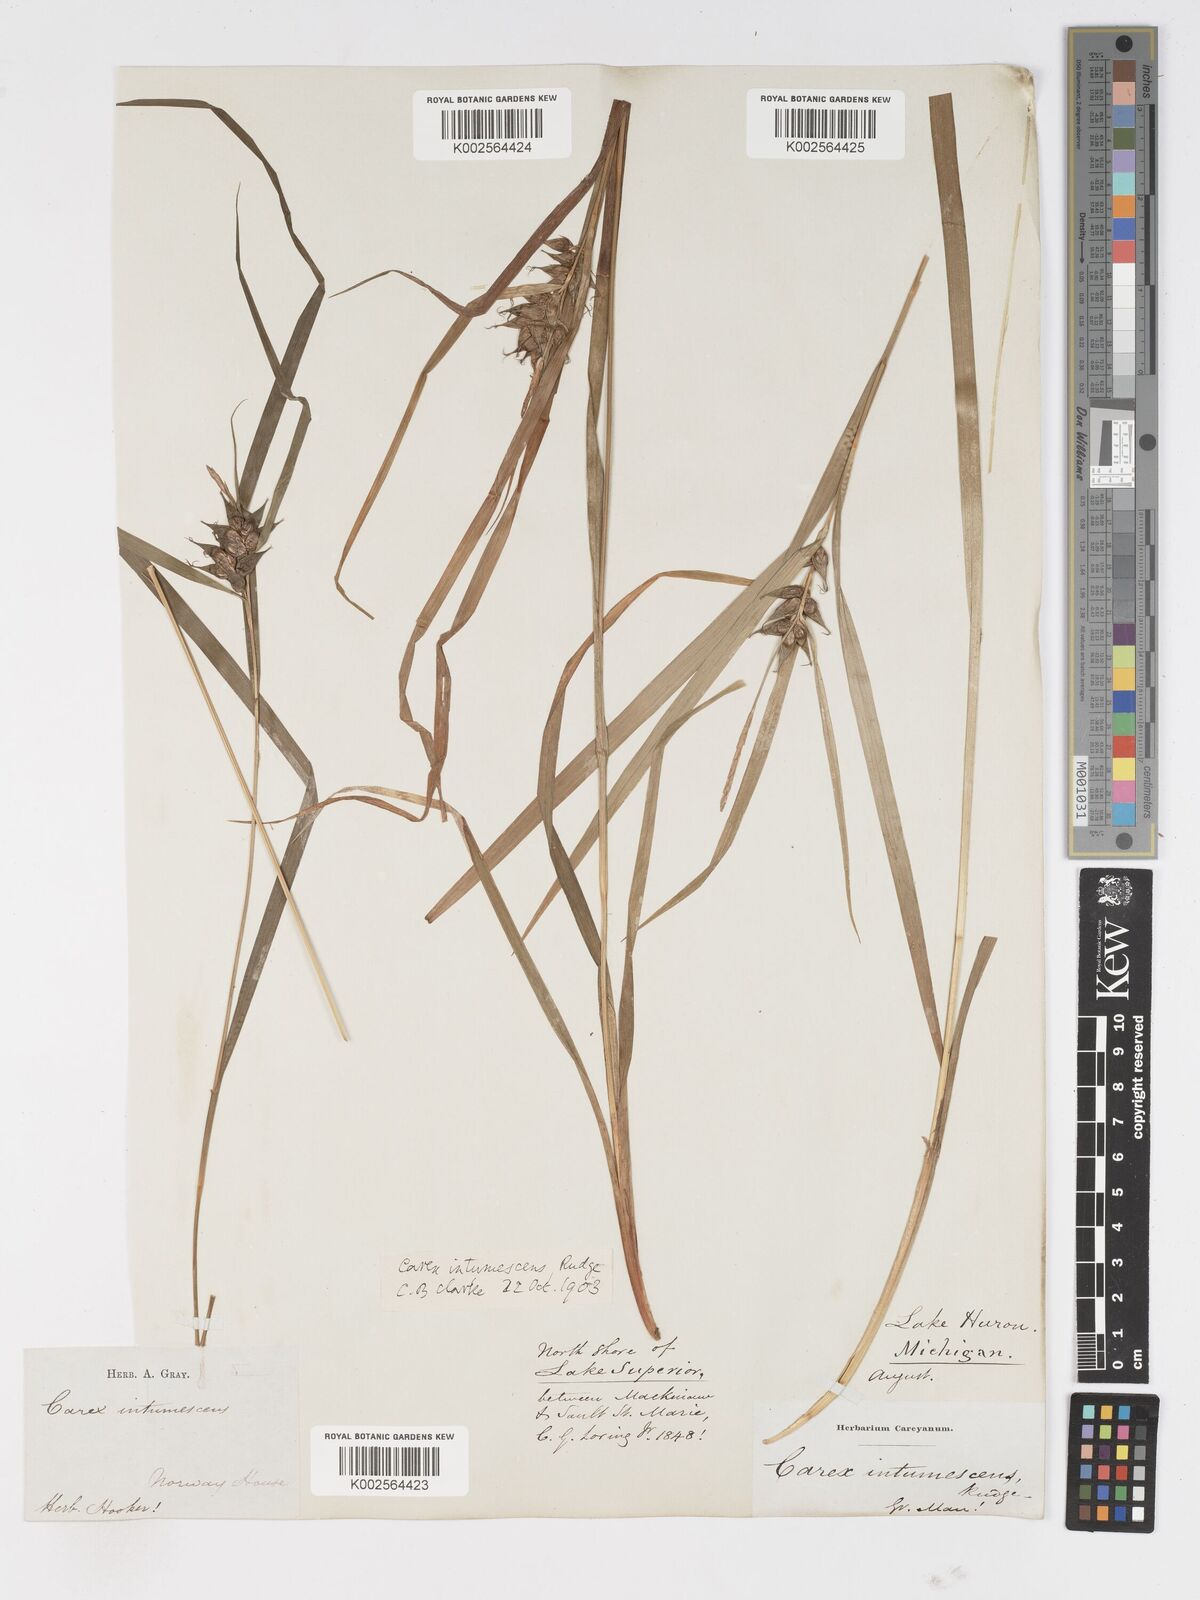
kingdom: Plantae
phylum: Tracheophyta
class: Liliopsida
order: Poales
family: Cyperaceae
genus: Carex
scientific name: Carex intumescens
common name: Greater bladder sedge
